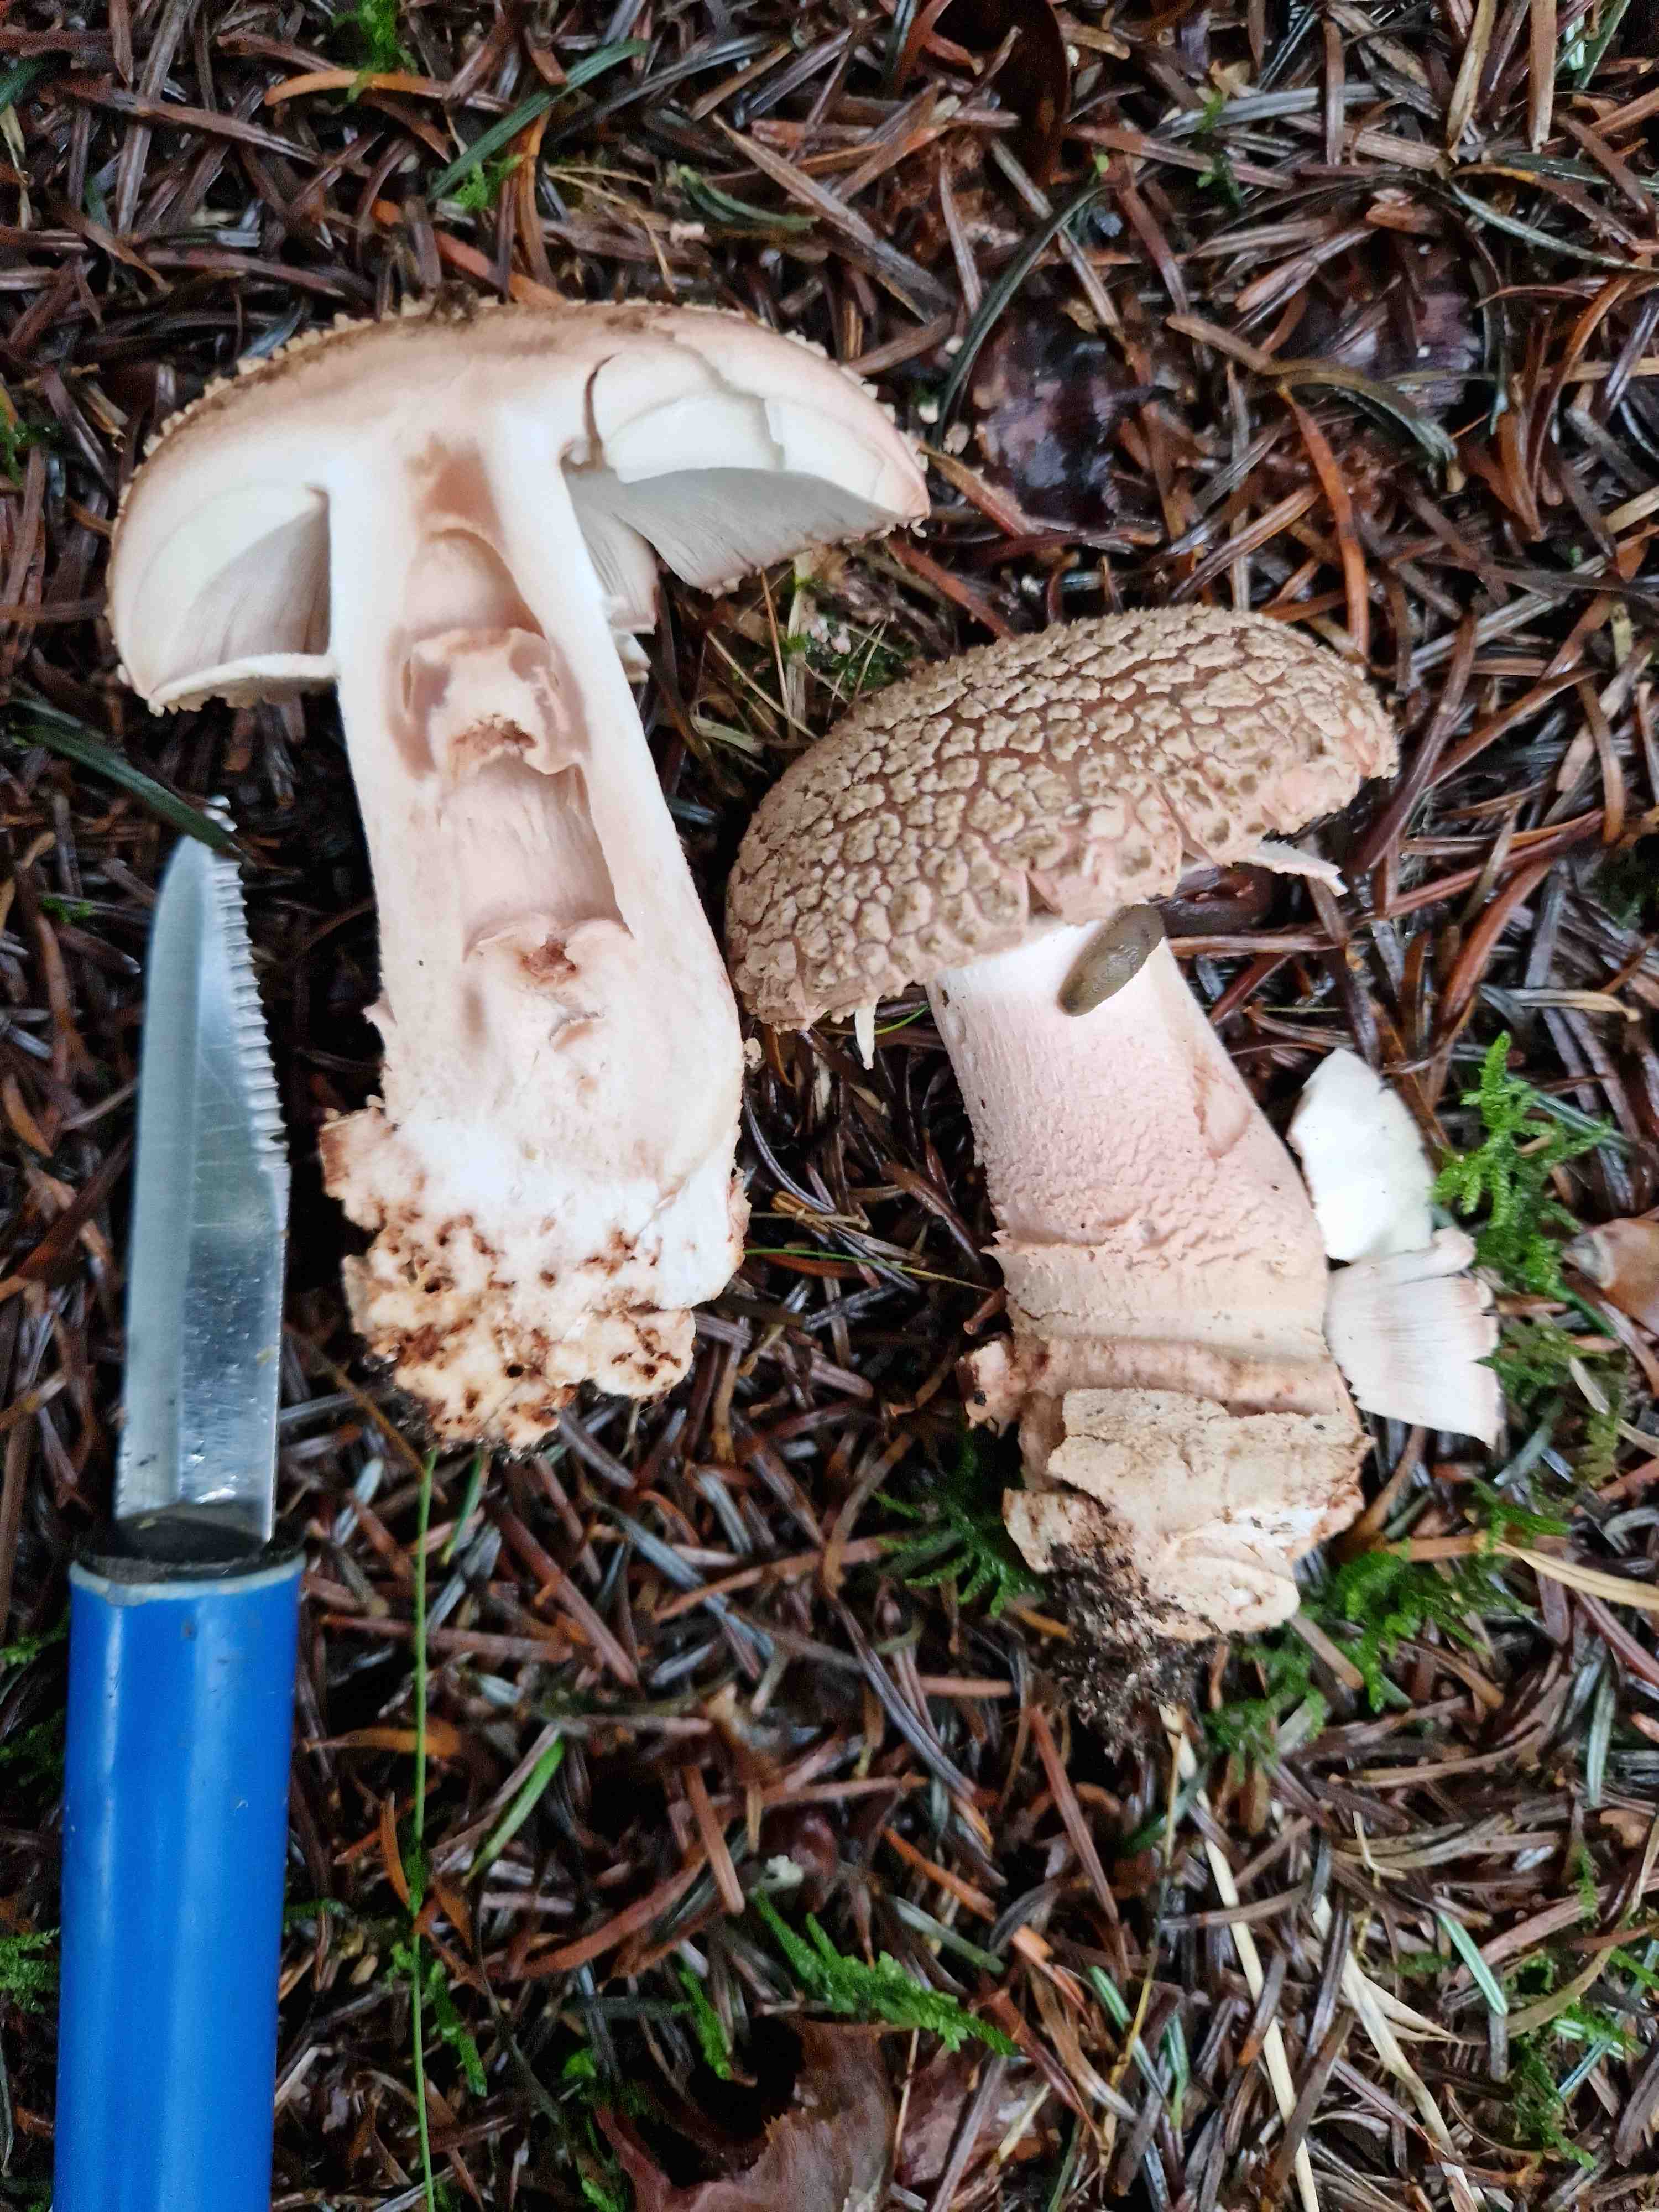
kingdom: Fungi
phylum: Basidiomycota
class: Agaricomycetes
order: Agaricales
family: Amanitaceae
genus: Amanita
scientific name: Amanita rubescens
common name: rødmende fluesvamp
